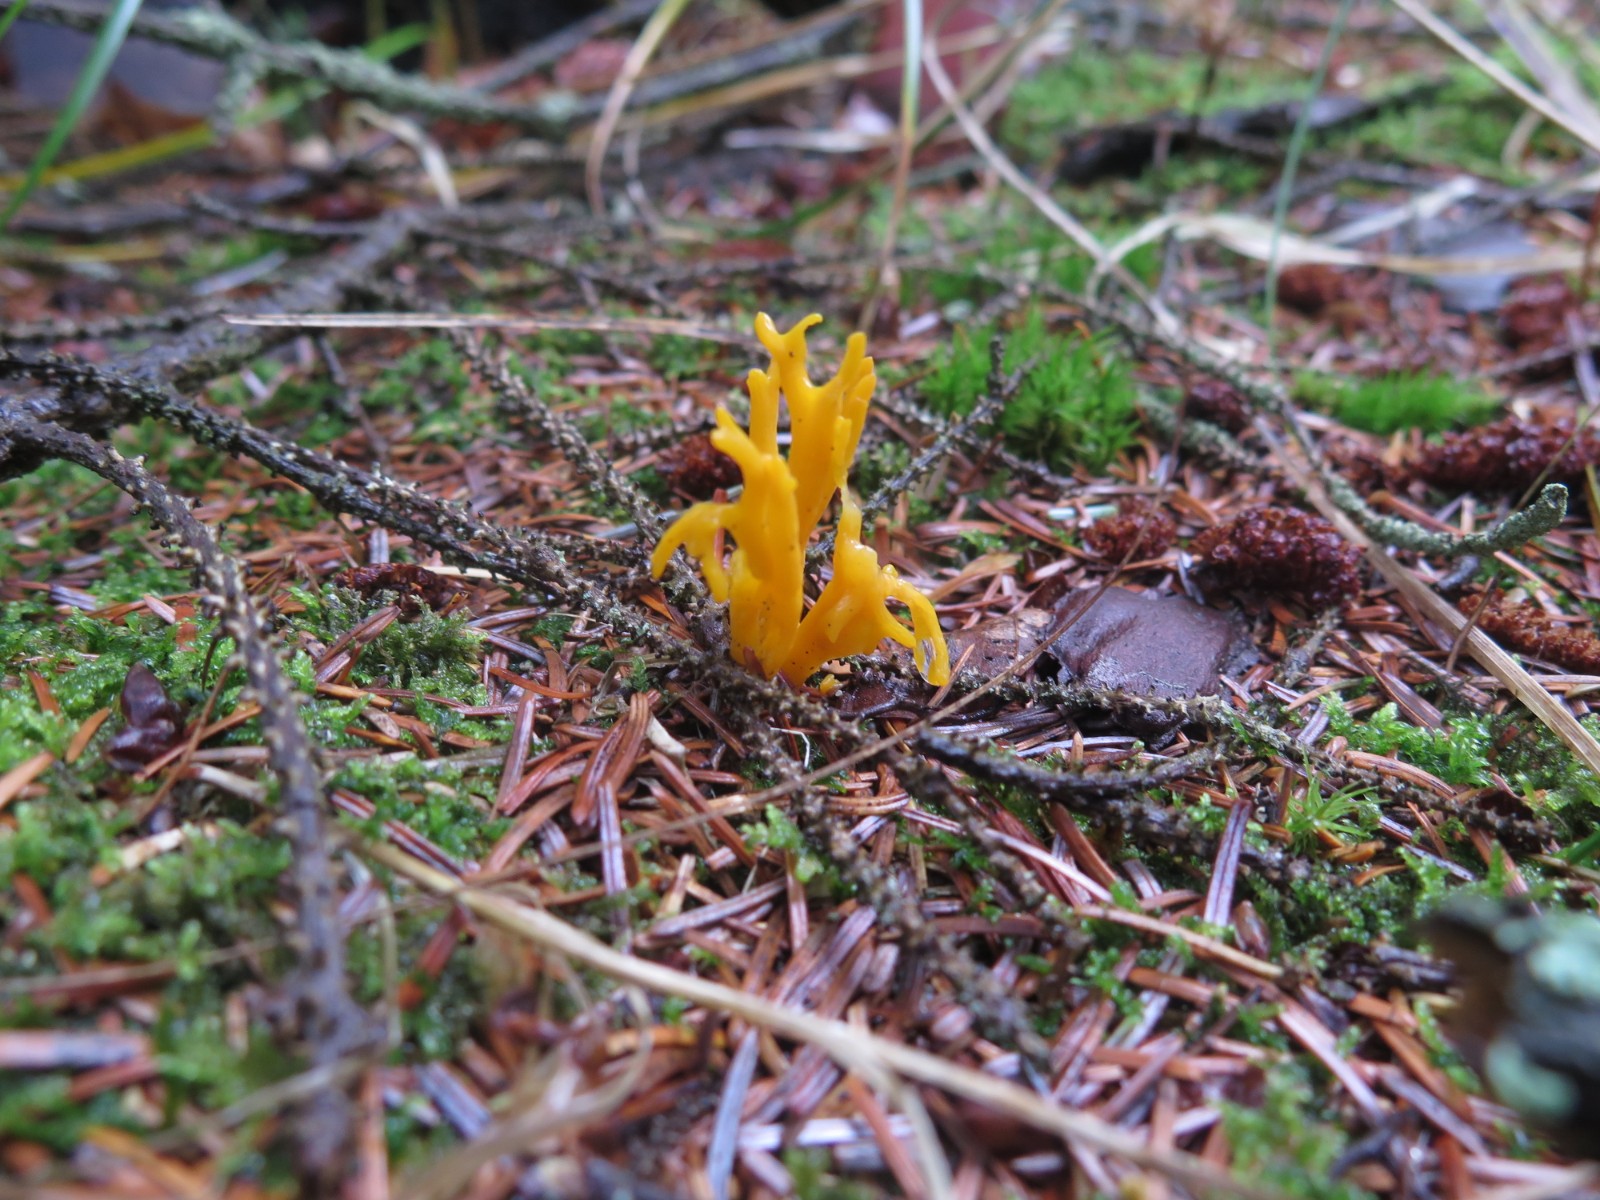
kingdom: Fungi
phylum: Basidiomycota
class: Dacrymycetes
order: Dacrymycetales
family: Dacrymycetaceae
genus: Calocera
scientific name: Calocera viscosa
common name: almindelig guldgaffel
